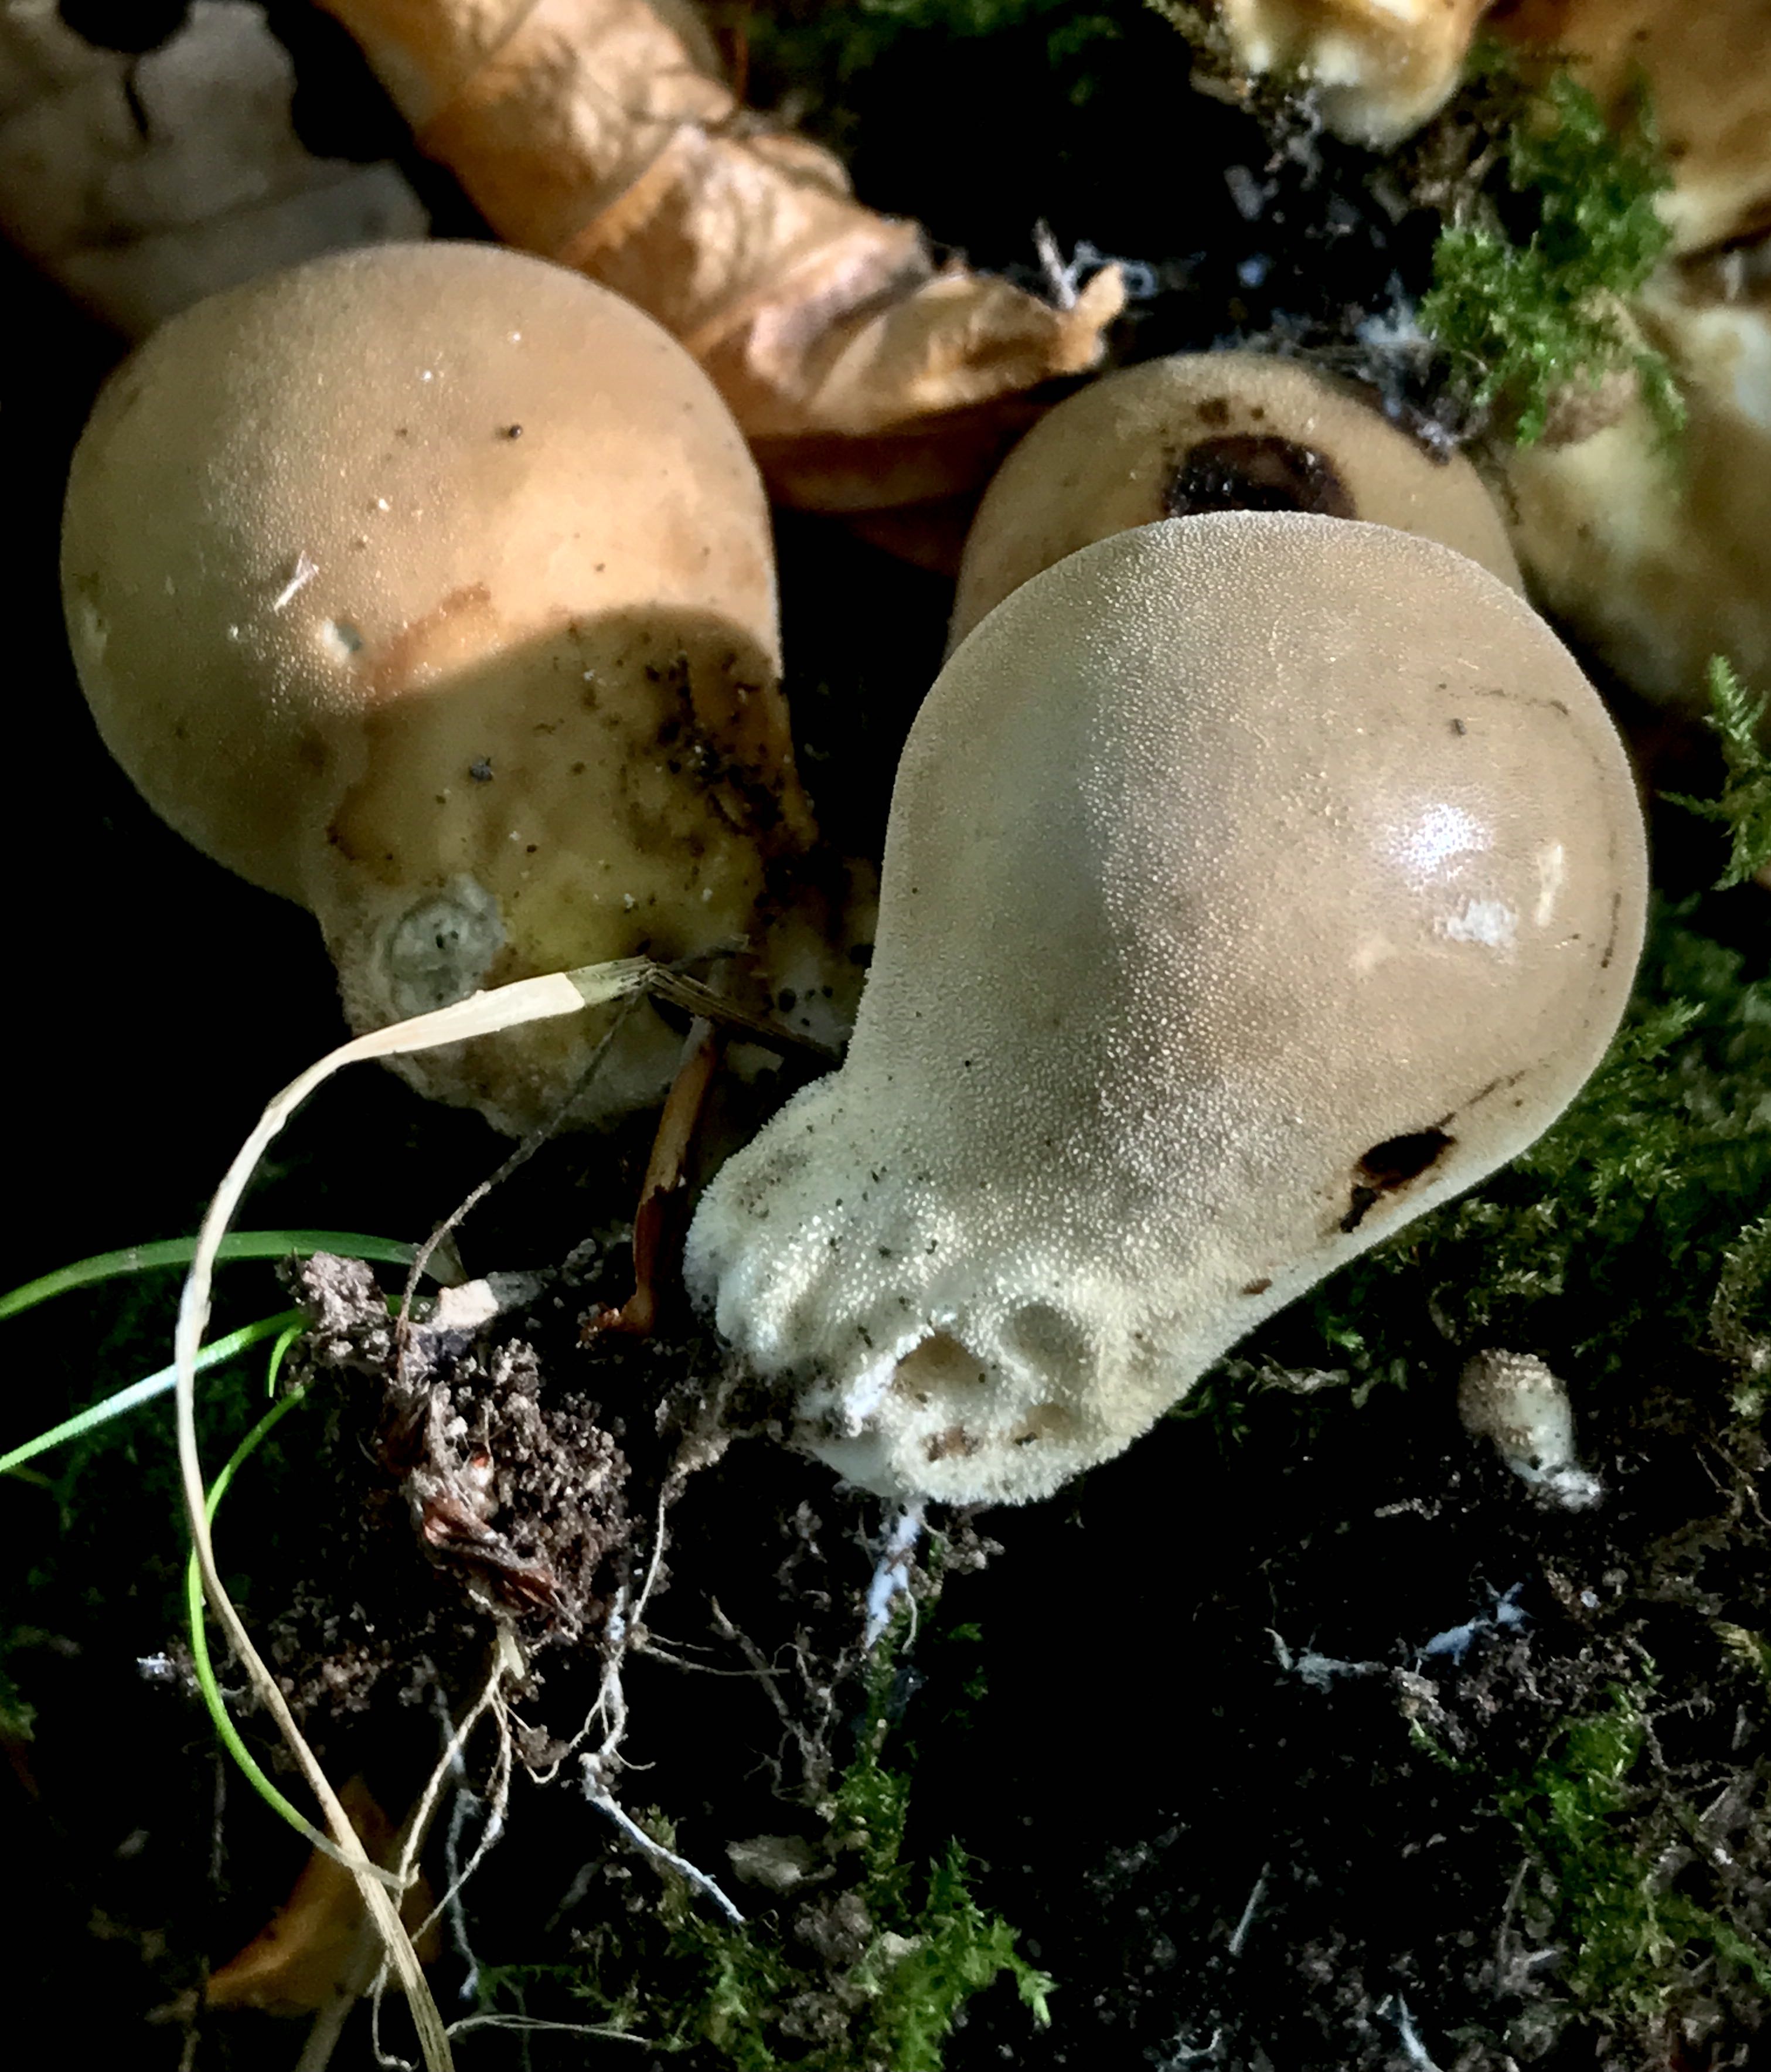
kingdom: Fungi
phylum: Basidiomycota
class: Agaricomycetes
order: Agaricales
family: Lycoperdaceae
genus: Apioperdon
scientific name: Apioperdon pyriforme
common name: pære-støvbold
